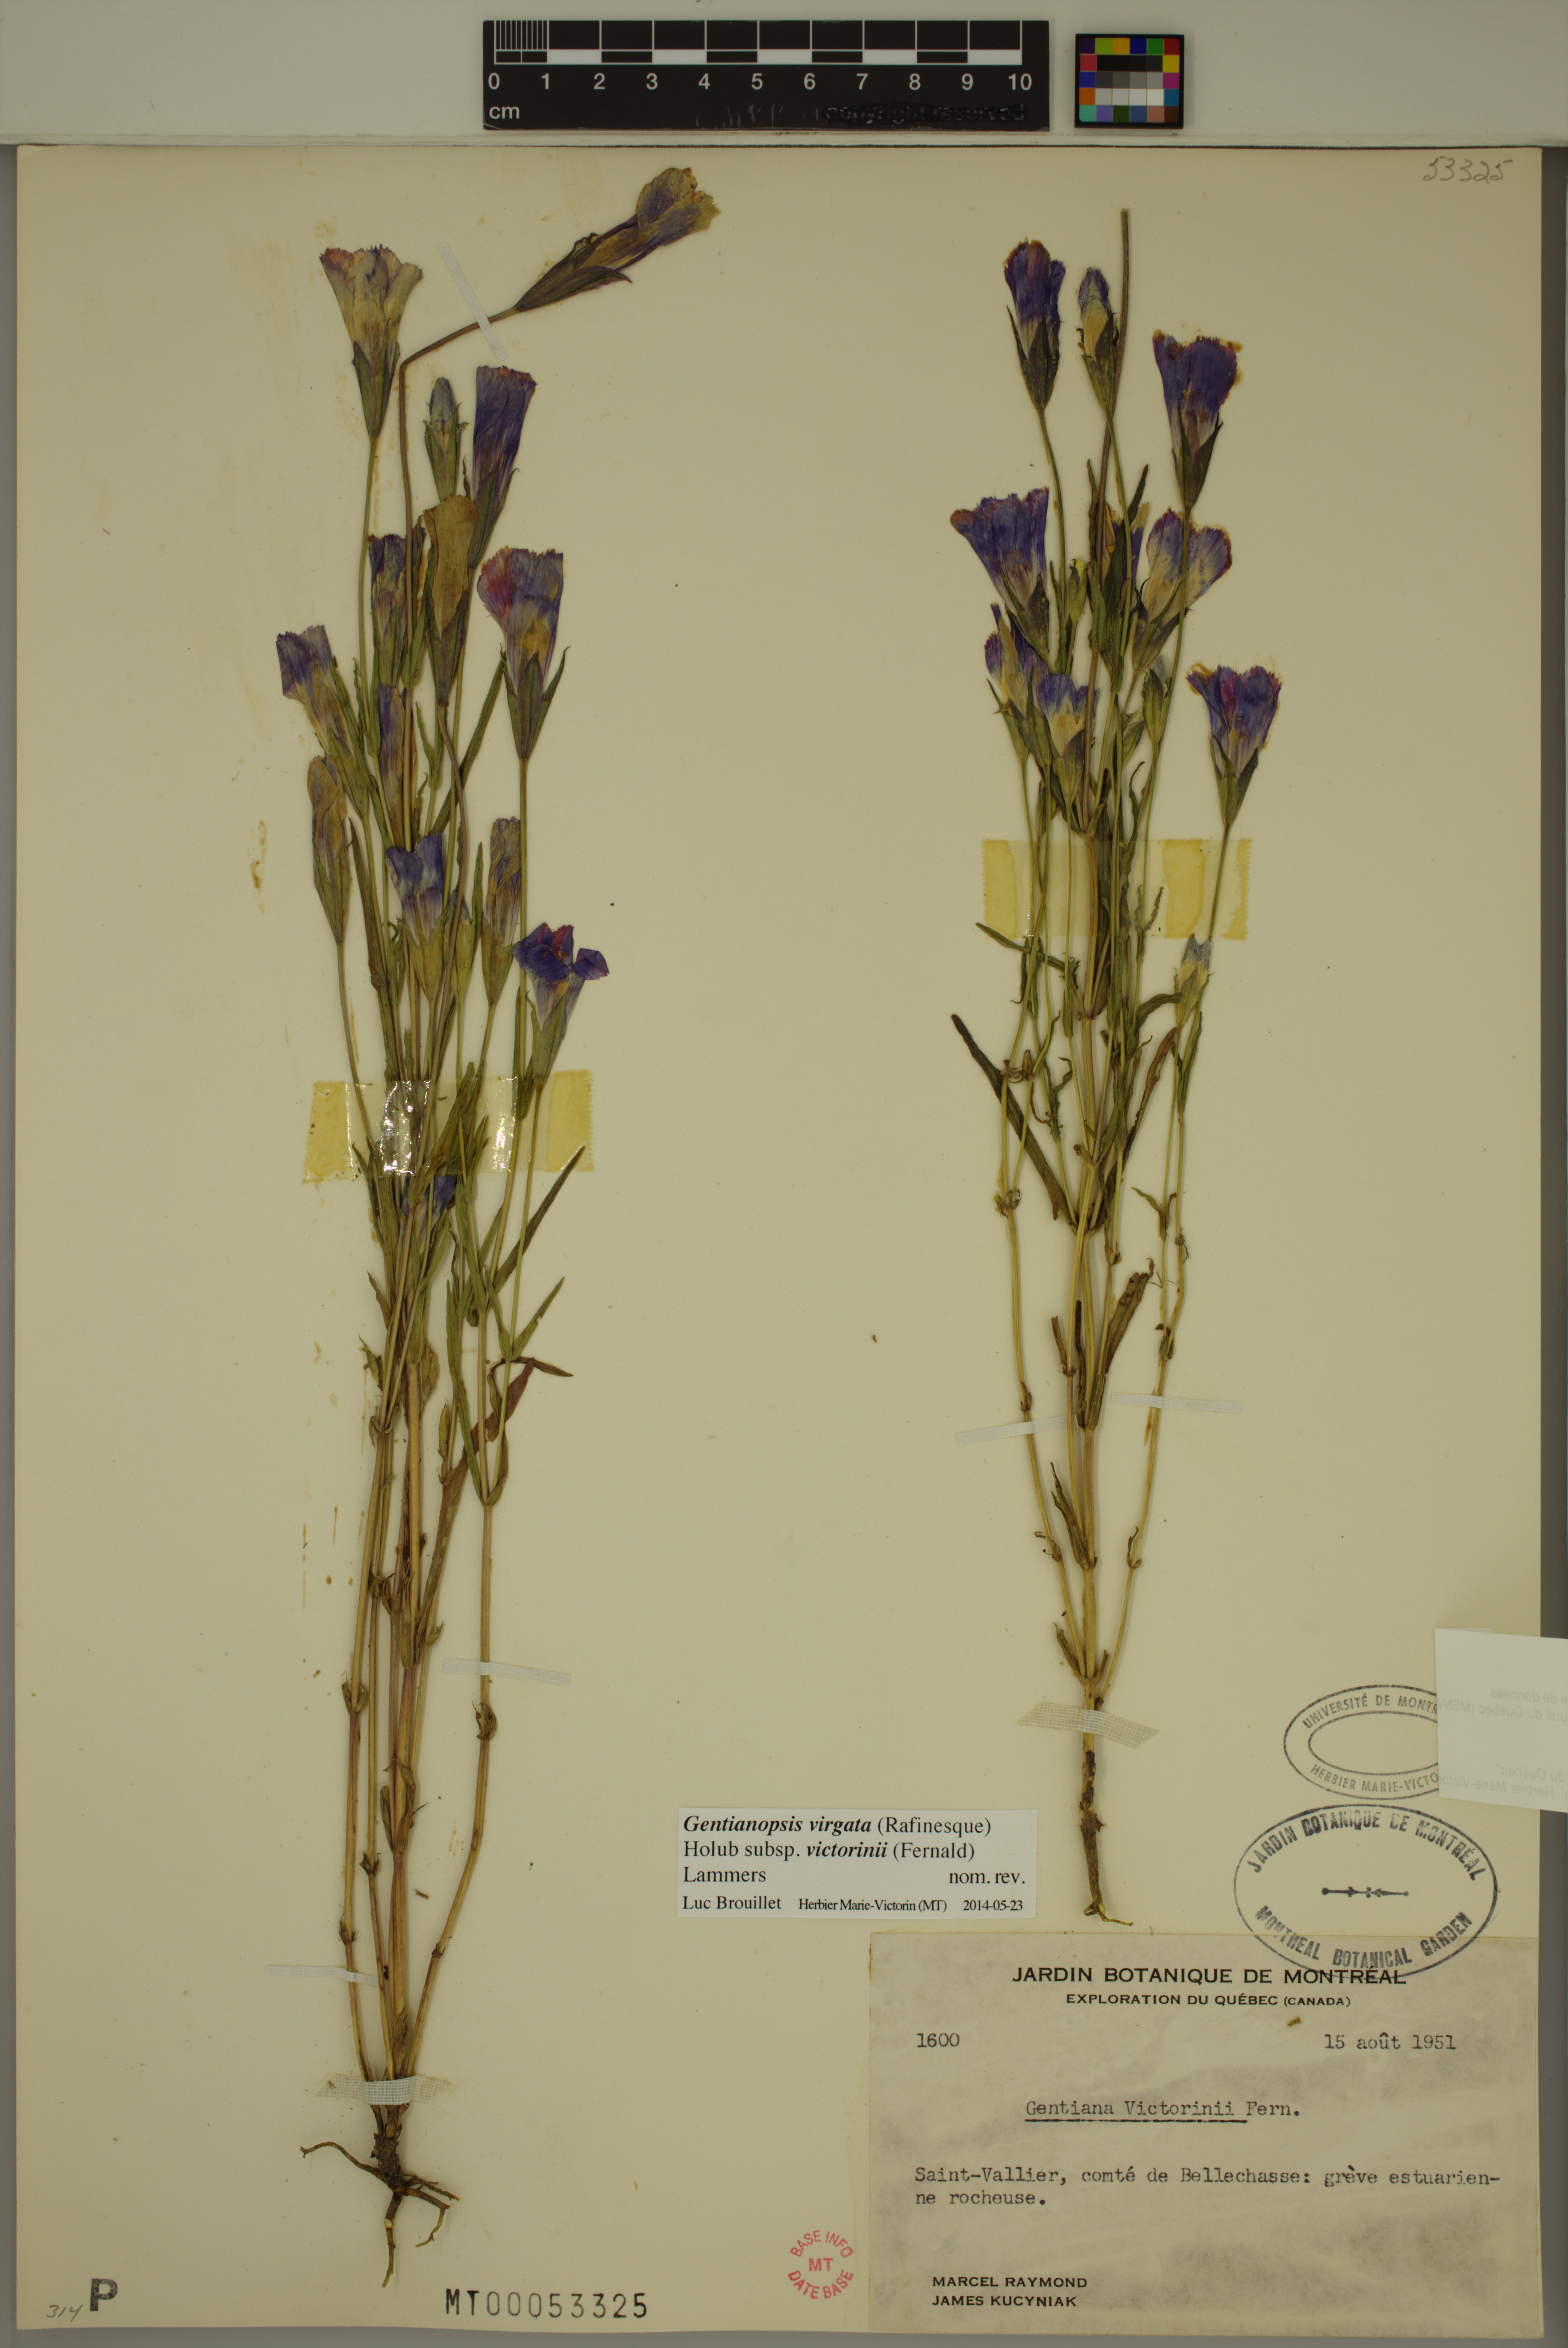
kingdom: Plantae
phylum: Tracheophyta
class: Magnoliopsida
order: Gentianales
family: Gentianaceae
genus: Gentianopsis
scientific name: Gentianopsis victorinii
